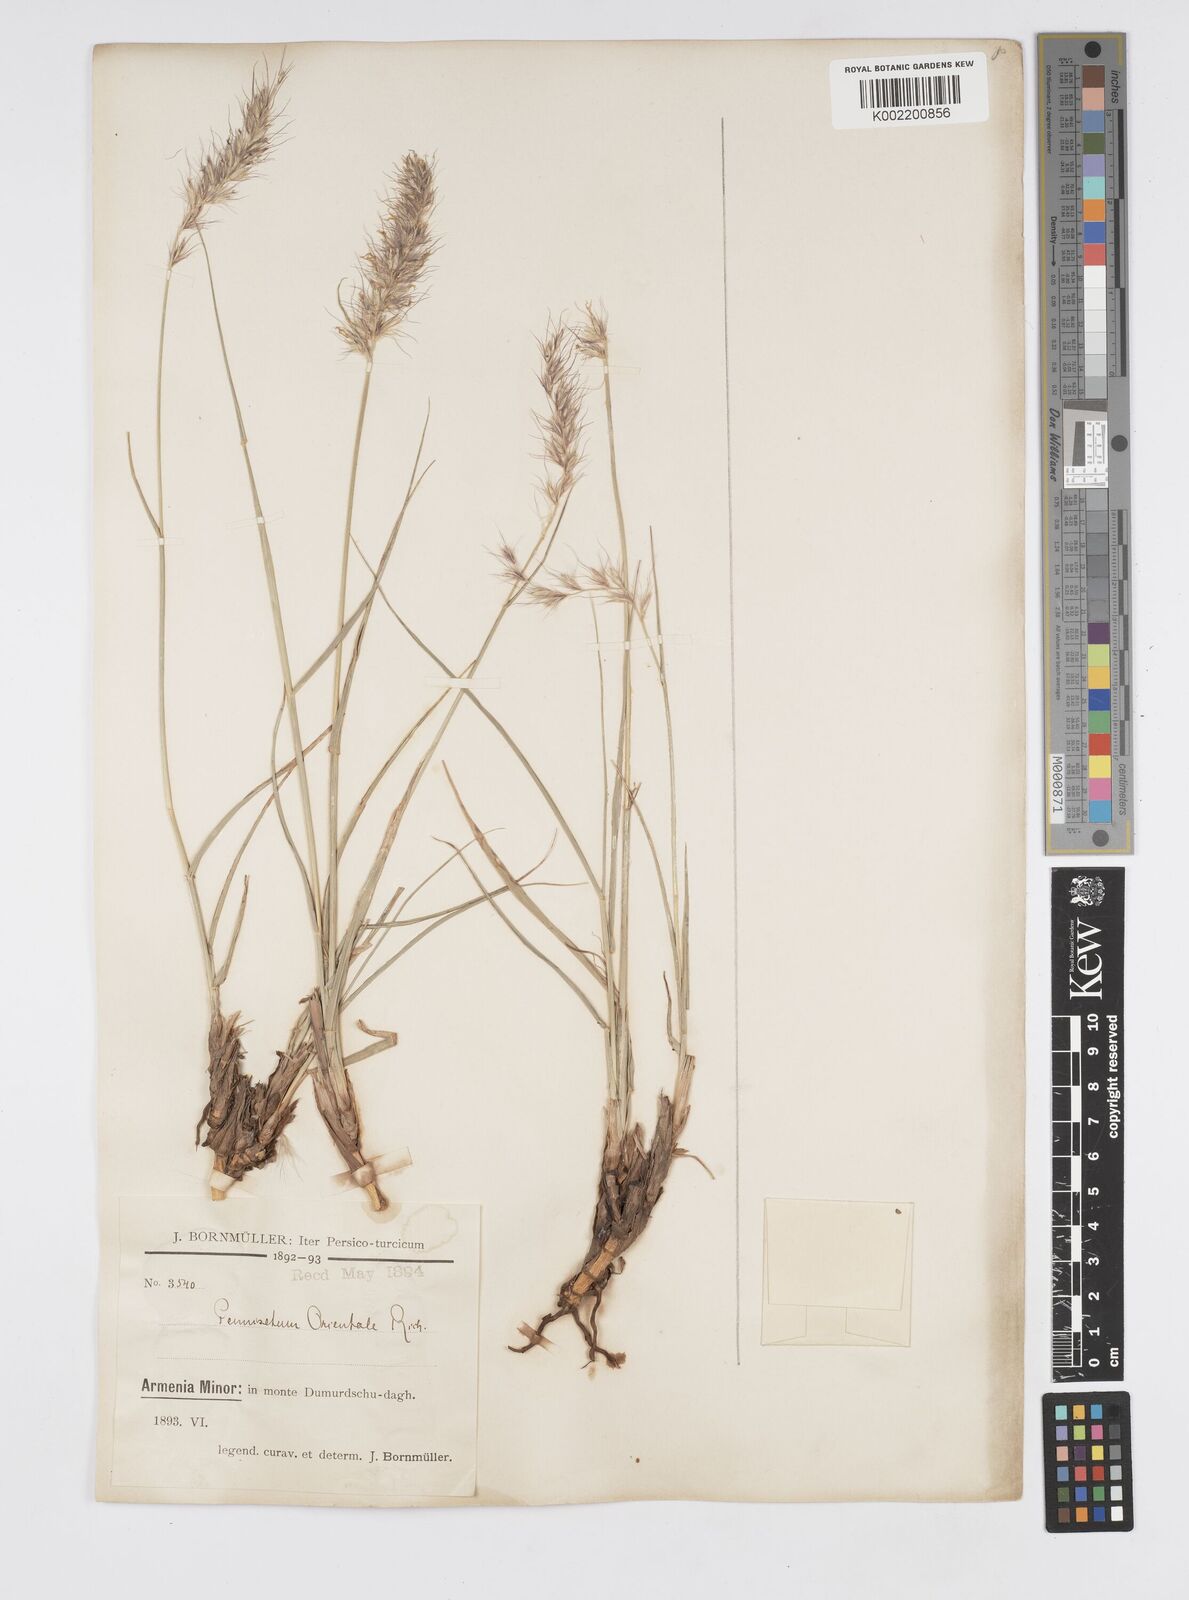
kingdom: Plantae
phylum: Tracheophyta
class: Liliopsida
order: Poales
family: Poaceae
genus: Cenchrus
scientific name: Cenchrus orientalis
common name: Oriental fountain grass
